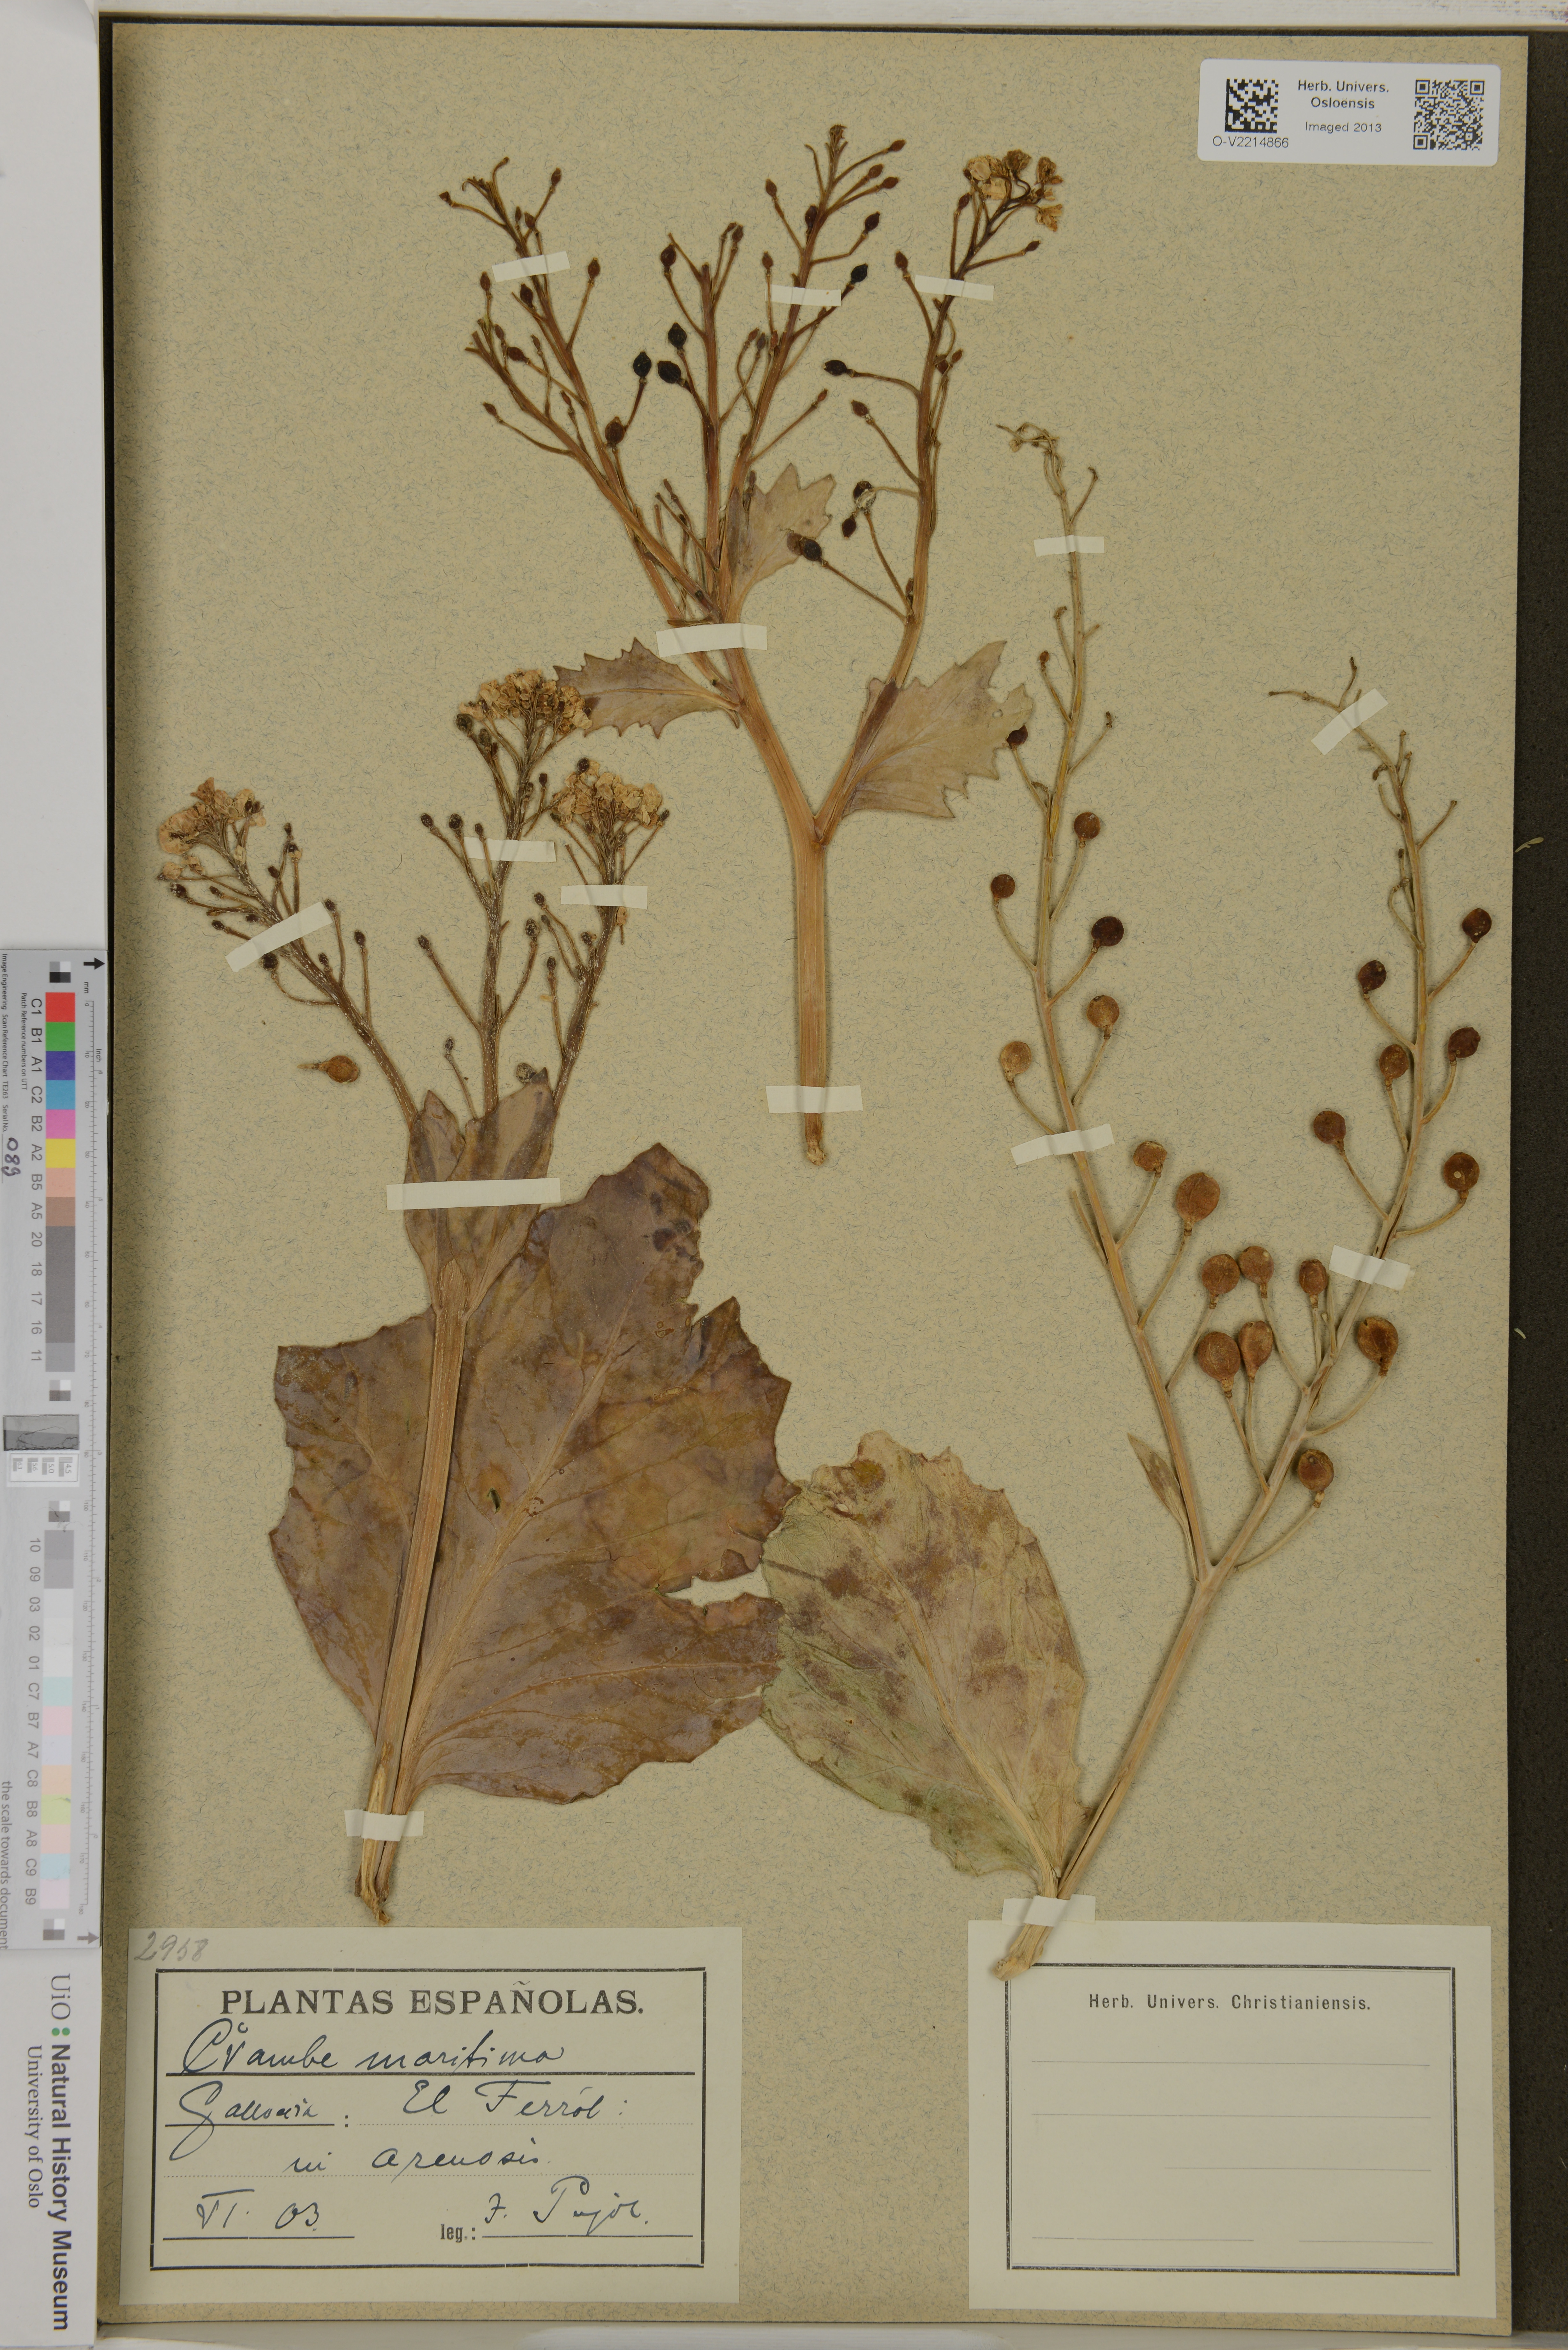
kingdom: Plantae
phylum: Tracheophyta
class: Magnoliopsida
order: Brassicales
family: Brassicaceae
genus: Crambe
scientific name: Crambe maritima
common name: Sea-kale
